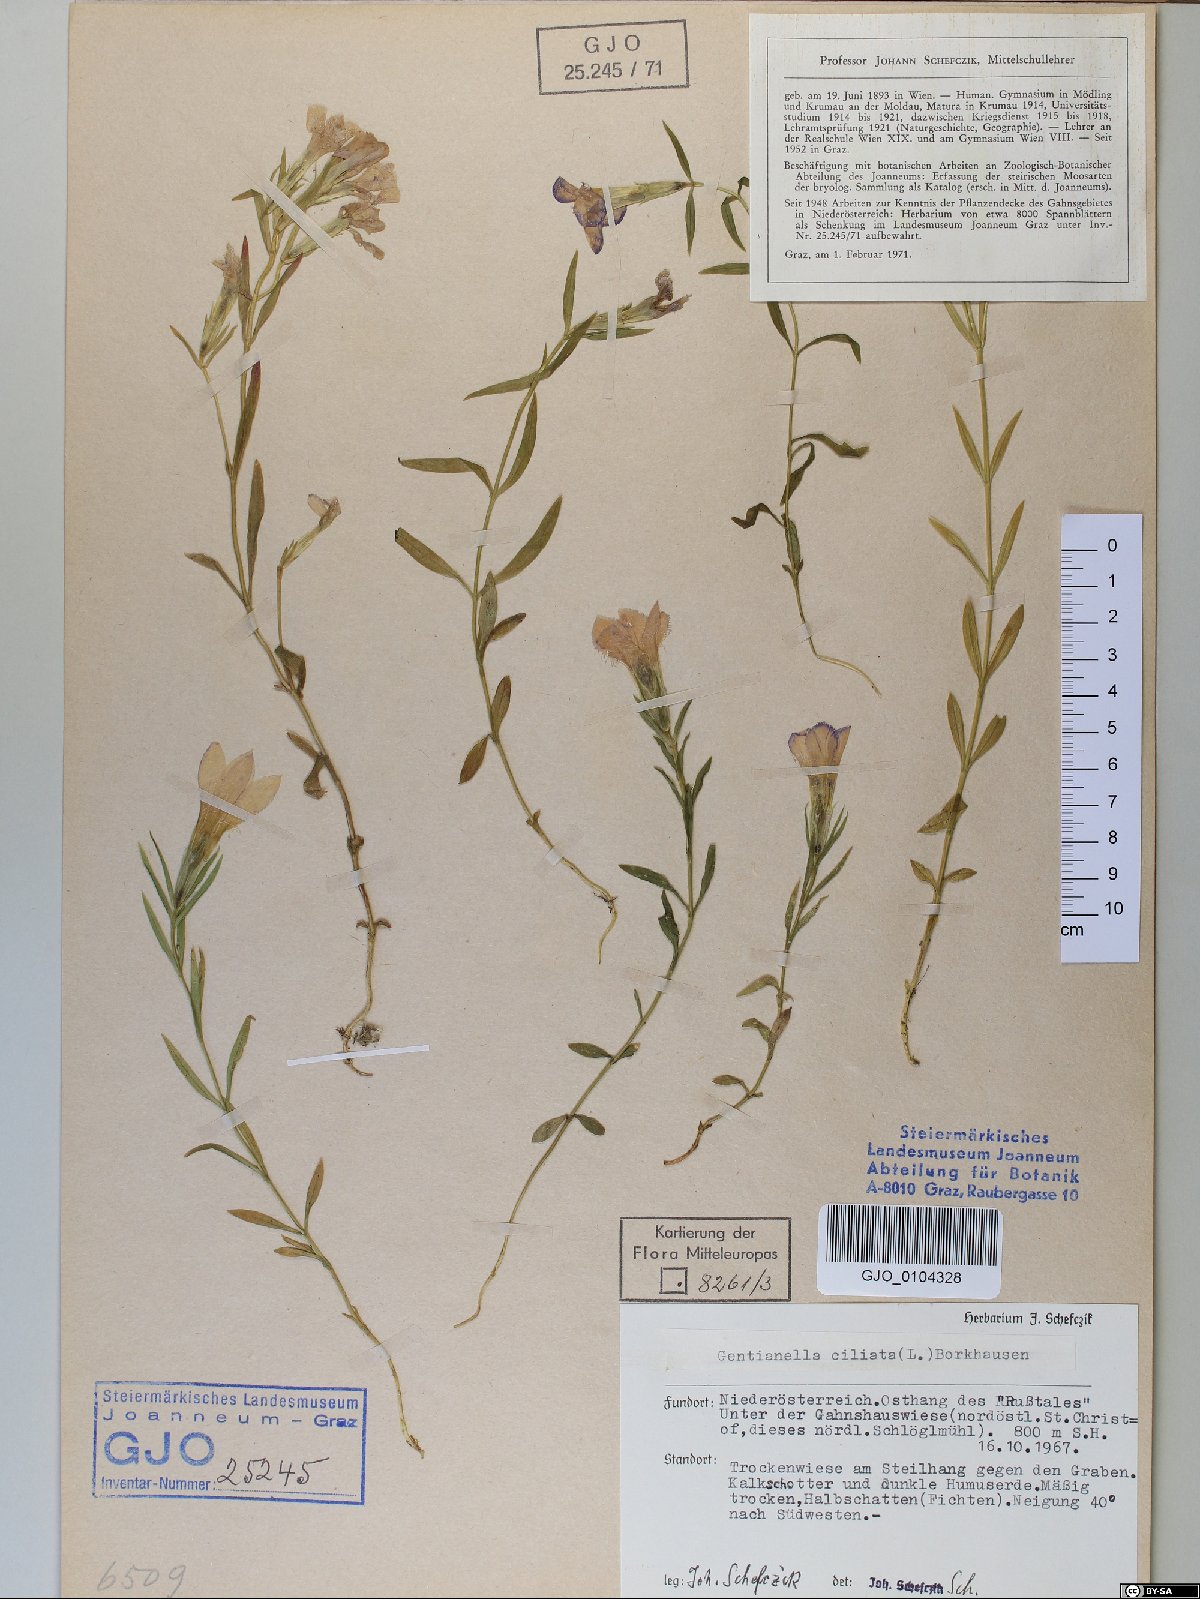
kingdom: Plantae
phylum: Tracheophyta
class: Magnoliopsida
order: Gentianales
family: Gentianaceae
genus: Gentianopsis
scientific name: Gentianopsis ciliata
